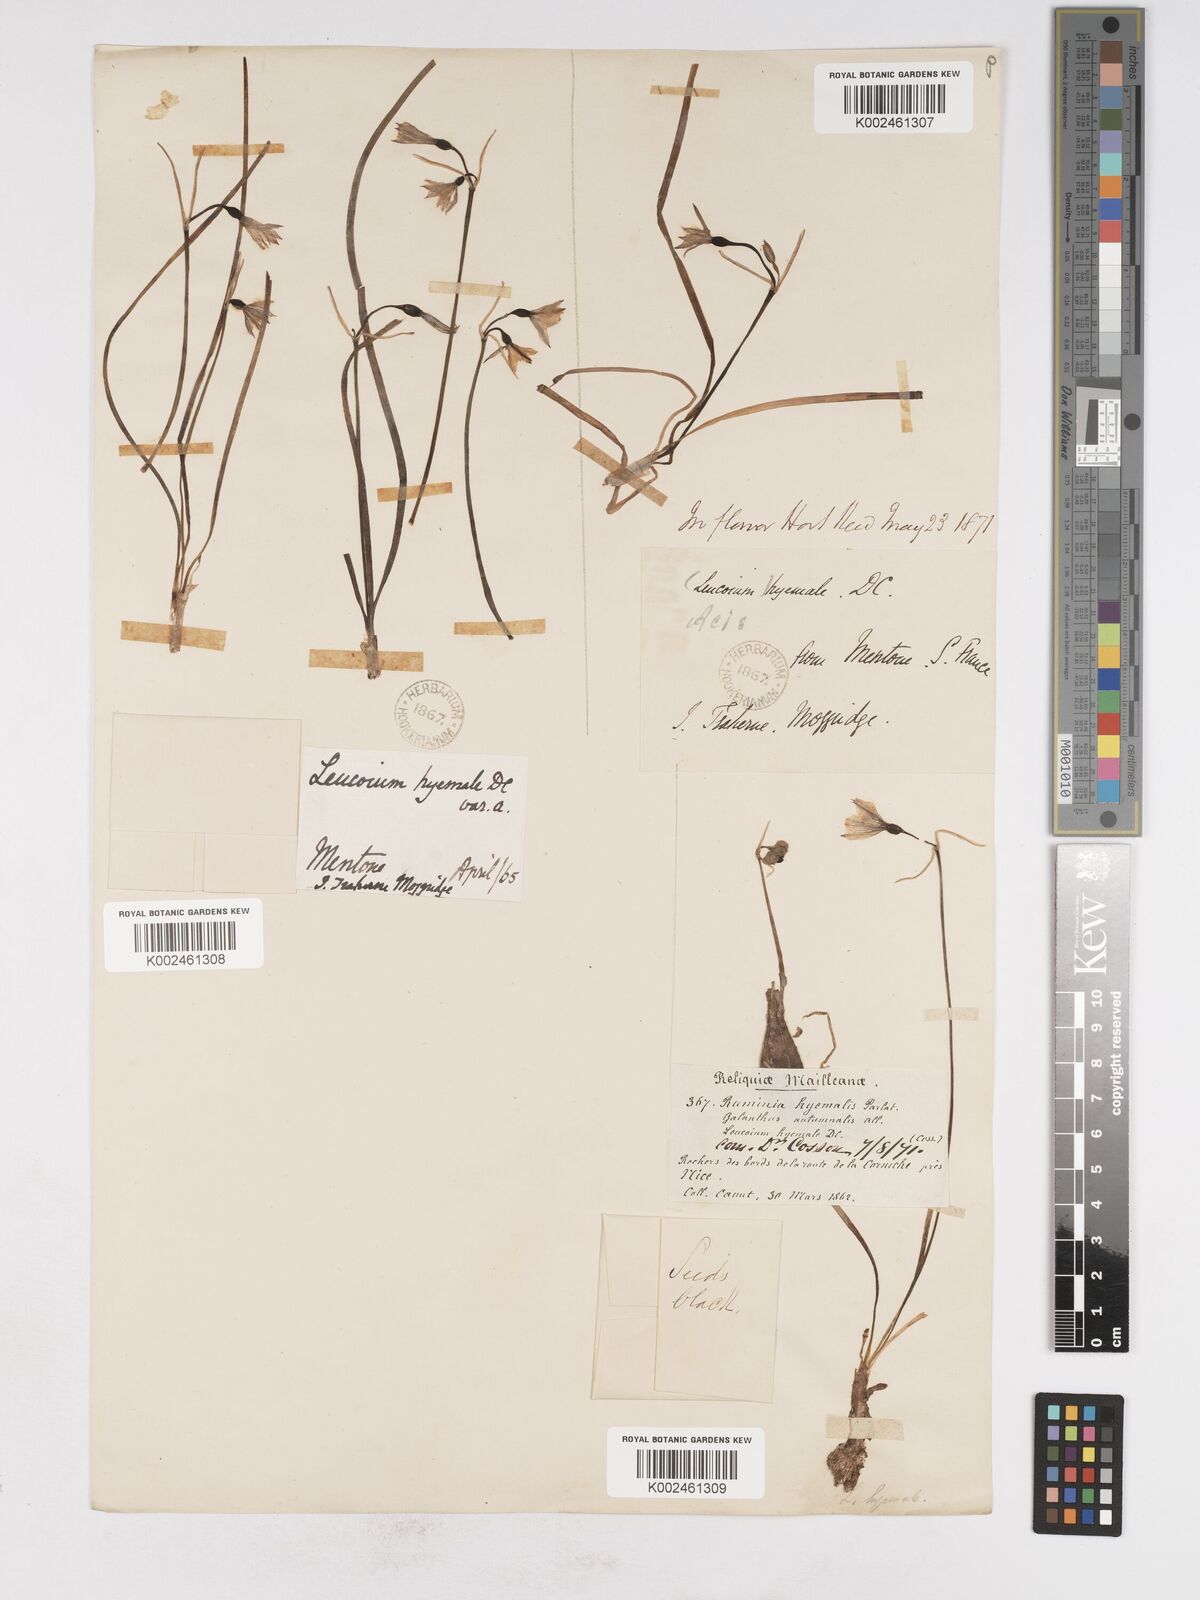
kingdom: Plantae
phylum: Tracheophyta
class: Liliopsida
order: Asparagales
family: Amaryllidaceae
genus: Acis
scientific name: Acis nicaeensis
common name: French snowflake
